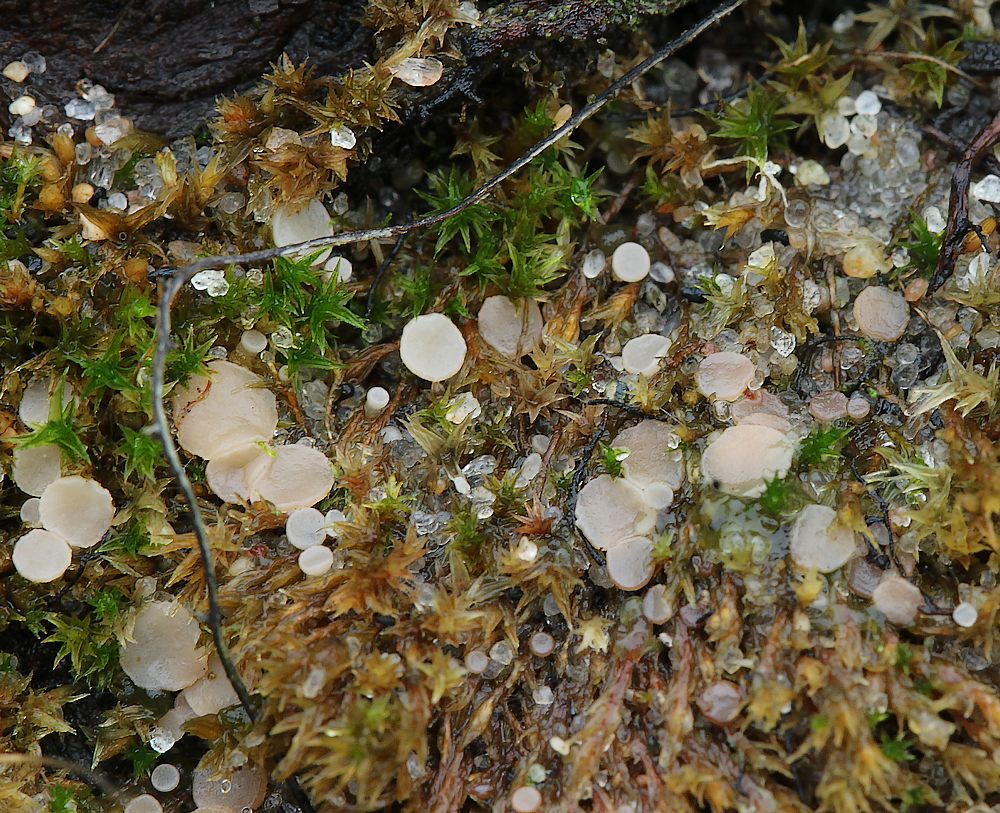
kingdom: Fungi
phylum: Ascomycota
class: Leotiomycetes
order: Helotiales
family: Helotiaceae
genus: Bryoscyphus
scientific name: Bryoscyphus dicrani
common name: bladmos-stilkskive
